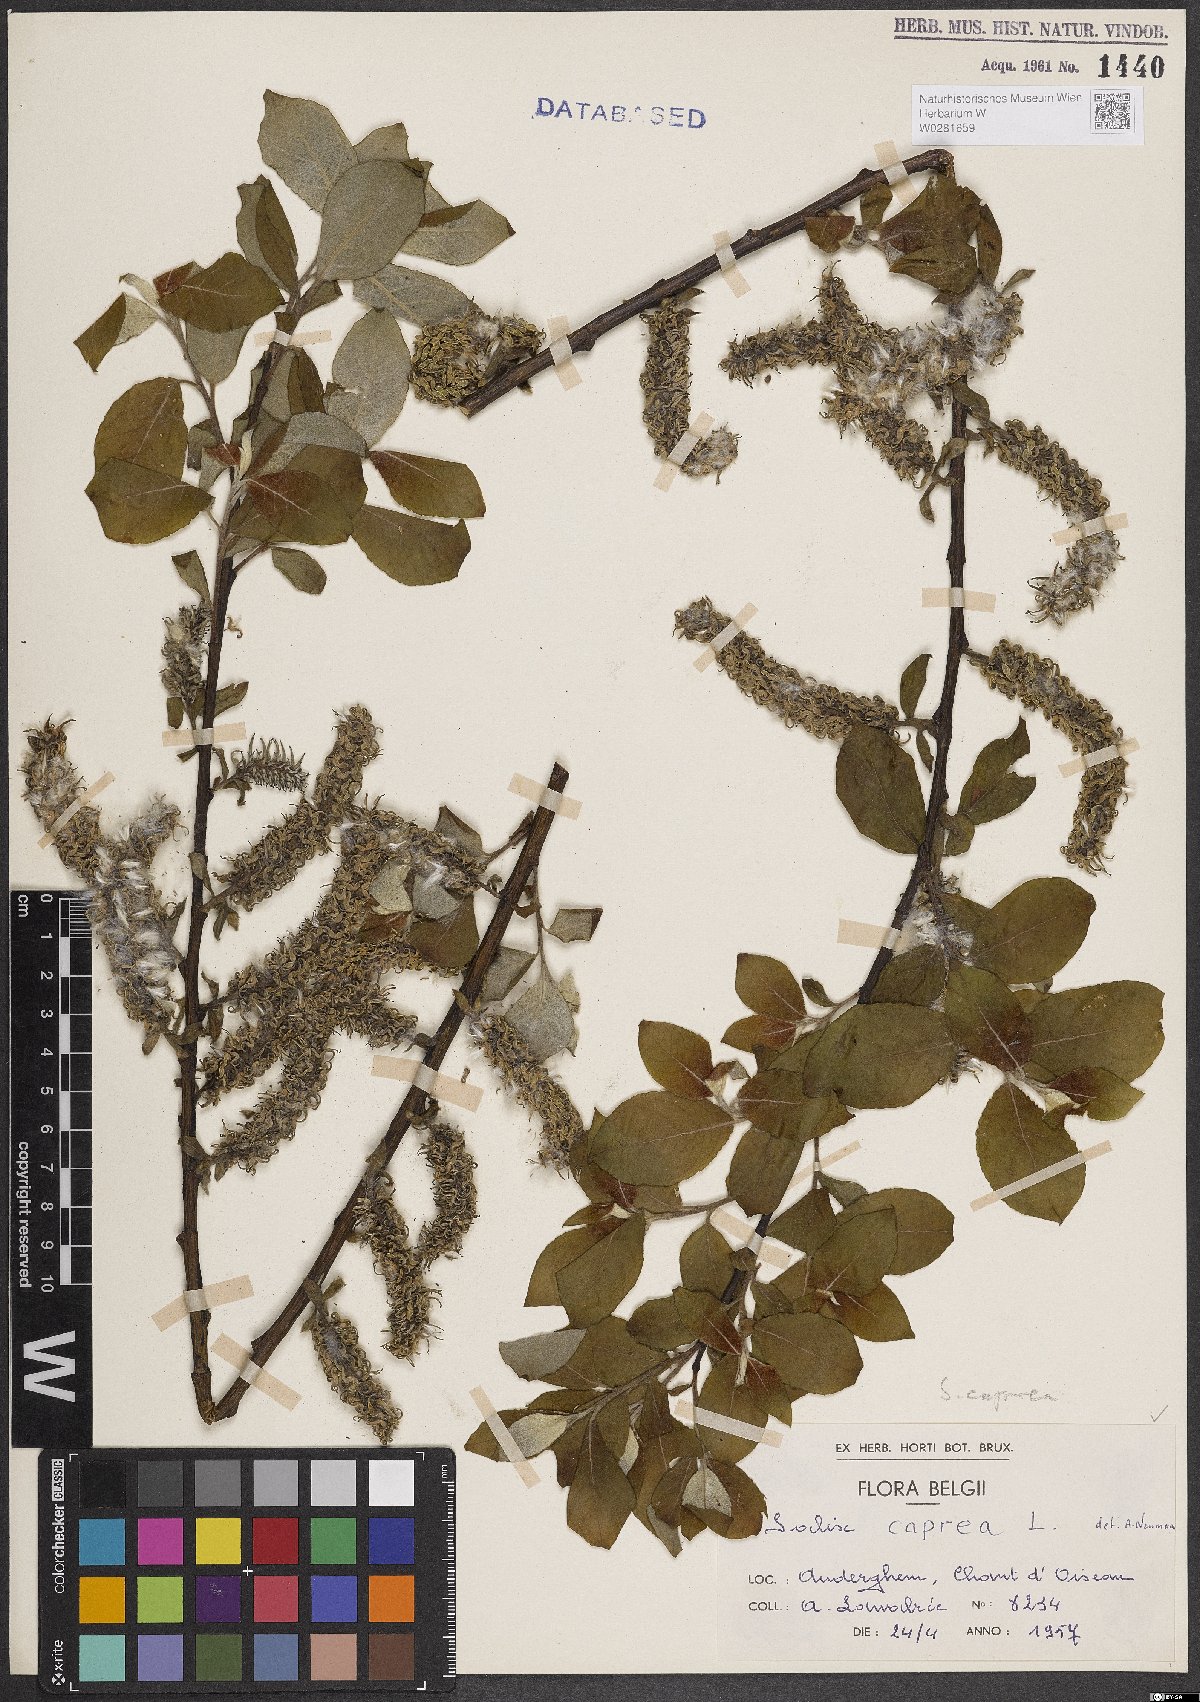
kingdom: Plantae
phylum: Tracheophyta
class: Magnoliopsida
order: Malpighiales
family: Salicaceae
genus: Salix
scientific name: Salix caprea
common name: Goat willow
